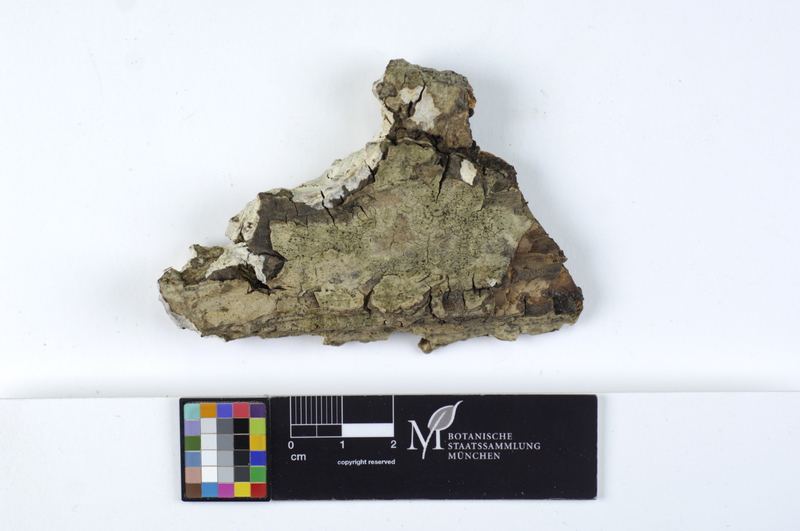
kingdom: Fungi
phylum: Basidiomycota
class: Agaricomycetes
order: Agaricales
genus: Dendrothele
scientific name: Dendrothele alliacea
